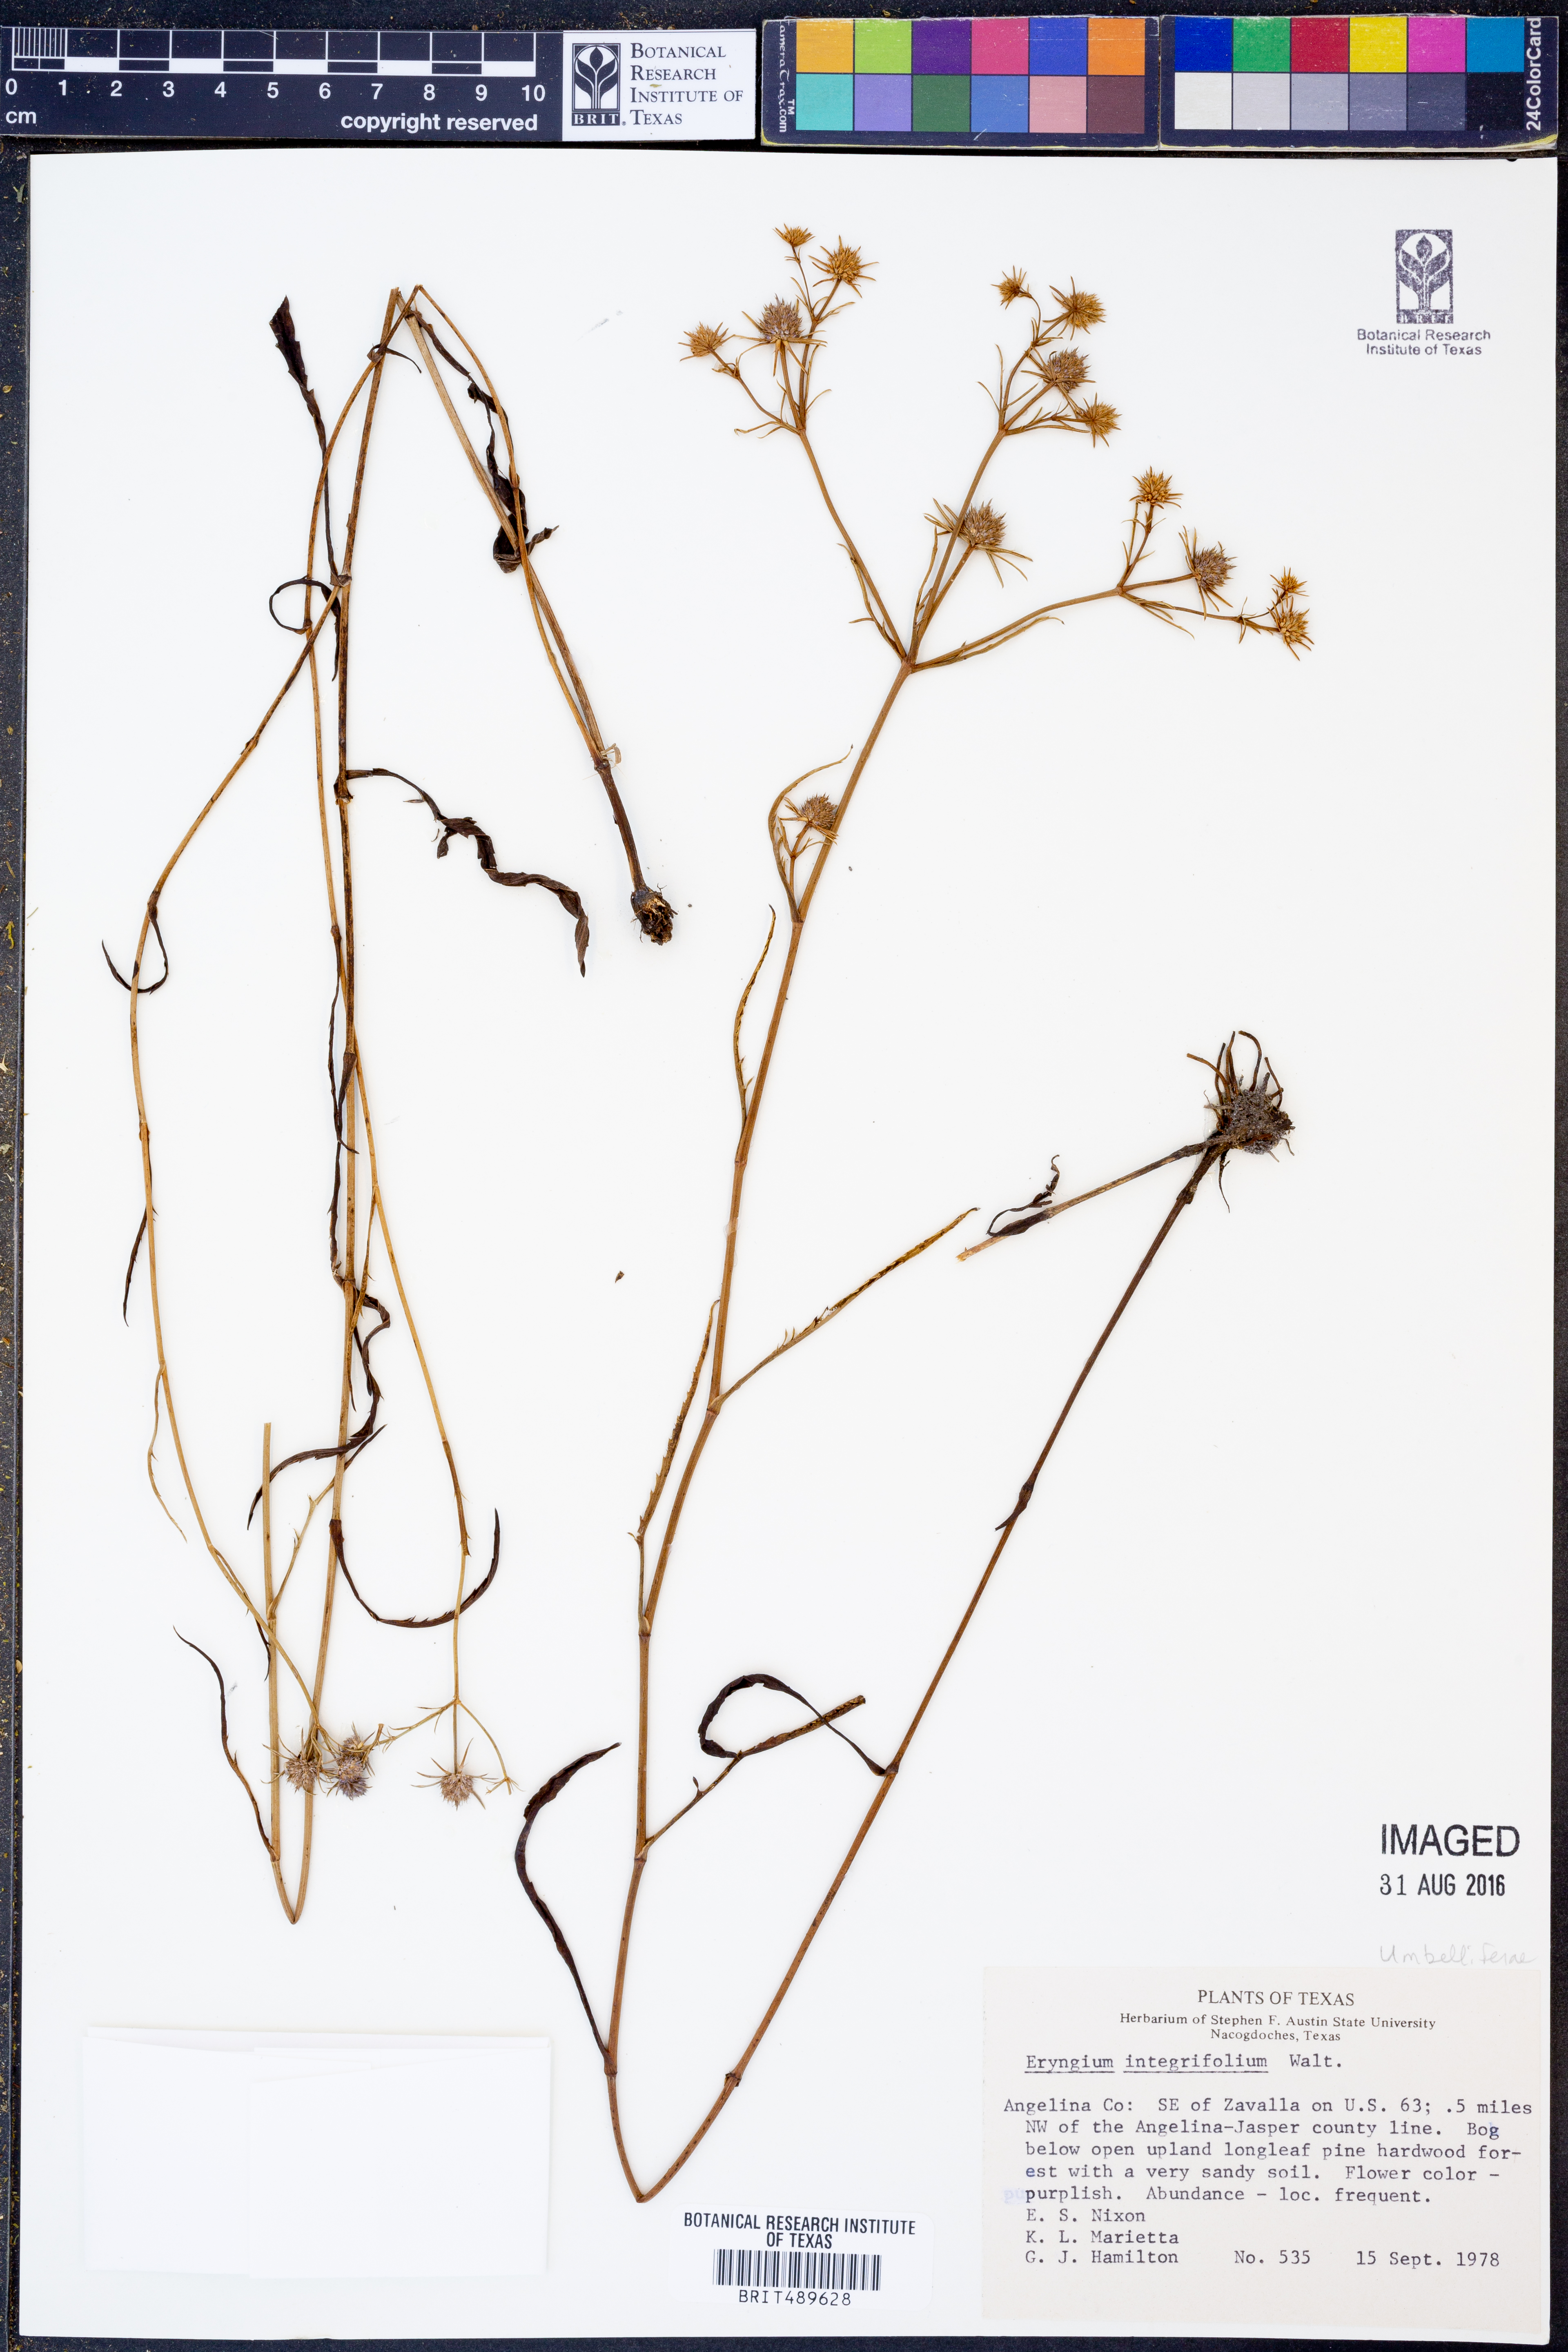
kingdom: Plantae
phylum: Tracheophyta
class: Magnoliopsida
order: Apiales
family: Apiaceae
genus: Eryngium
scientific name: Eryngium integrifolium
